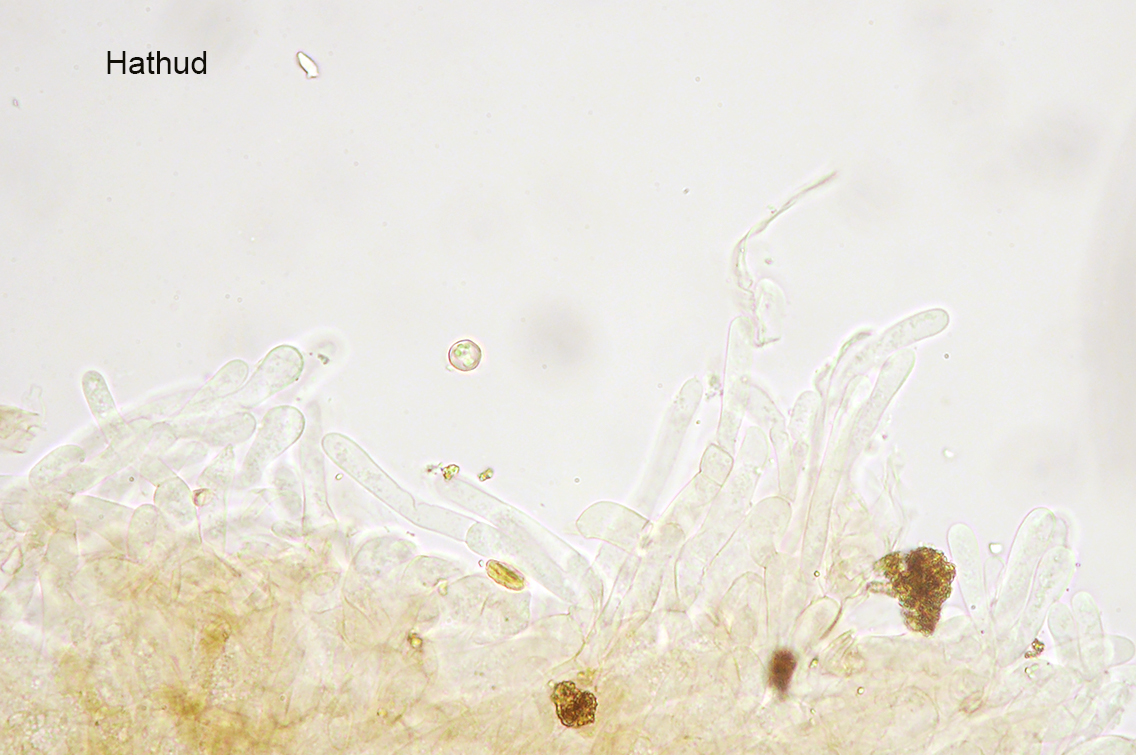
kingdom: Fungi
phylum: Basidiomycota
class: Agaricomycetes
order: Agaricales
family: Entolomataceae
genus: Entoloma
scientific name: Entoloma pygmaeopapillatum
